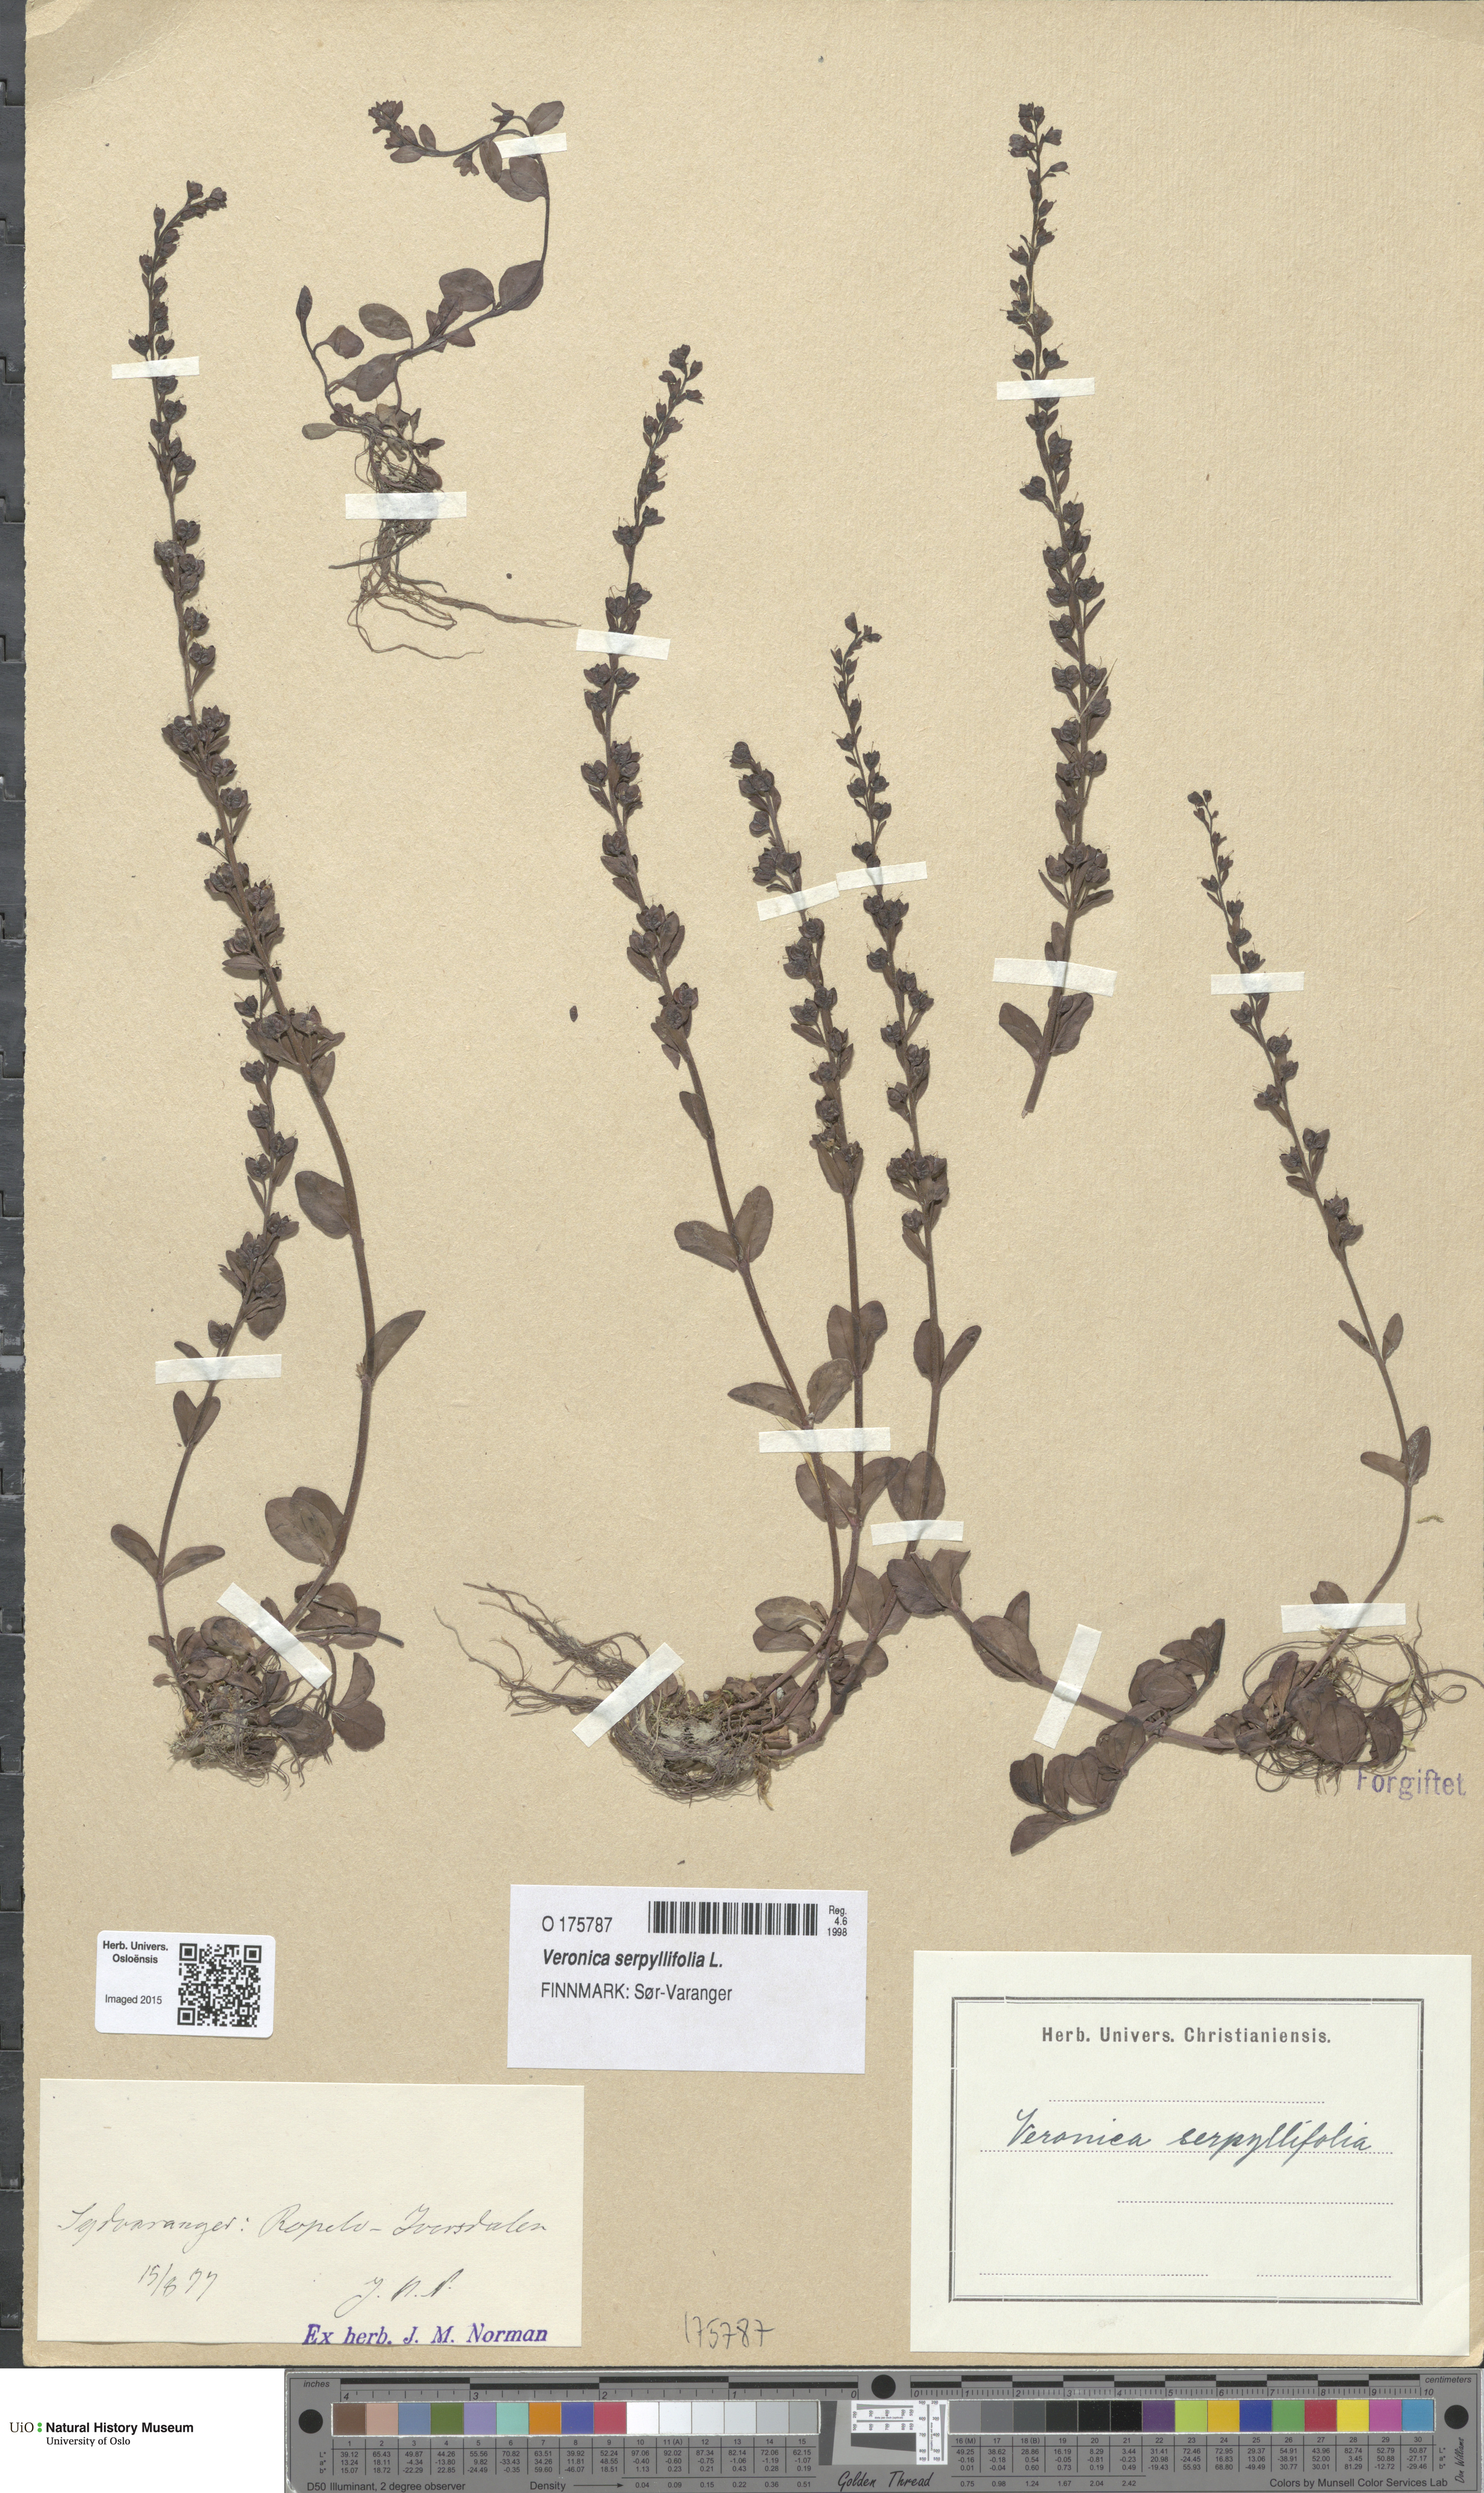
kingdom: Plantae
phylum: Tracheophyta
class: Magnoliopsida
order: Lamiales
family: Plantaginaceae
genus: Veronica
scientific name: Veronica serpyllifolia
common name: Thyme-leaved speedwell
